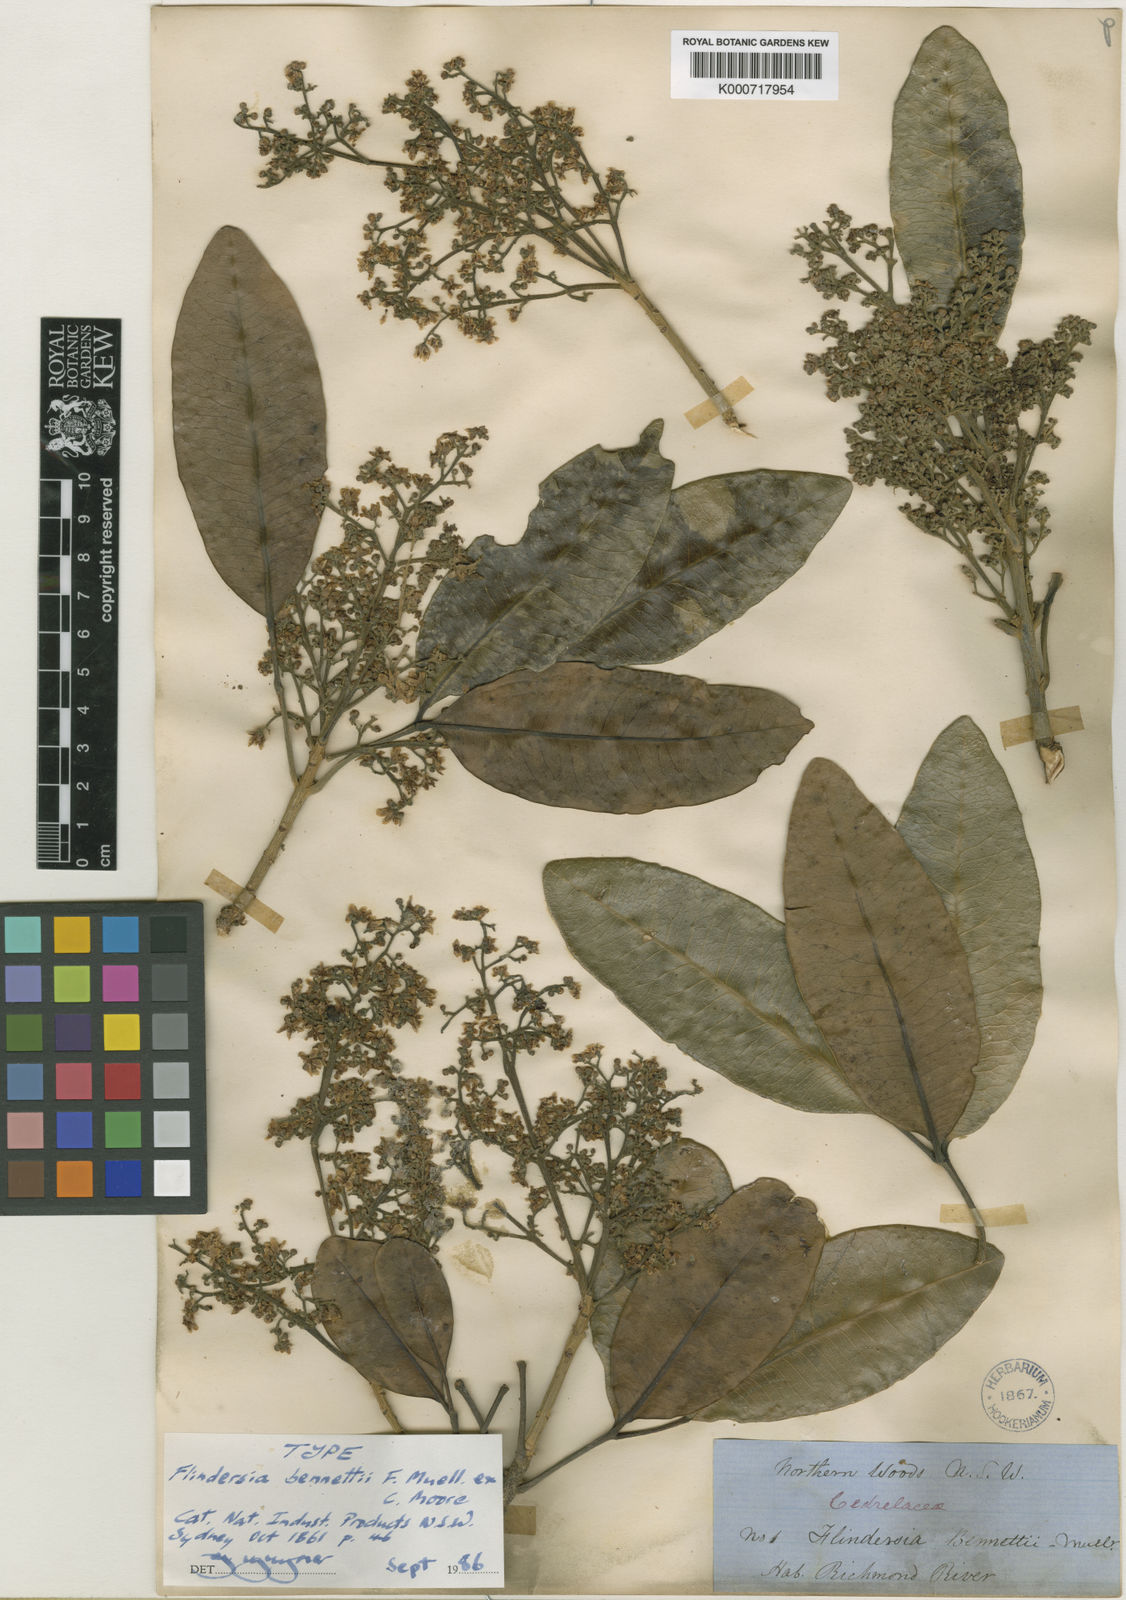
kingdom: Plantae
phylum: Tracheophyta
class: Magnoliopsida
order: Sapindales
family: Rutaceae
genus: Flindersia
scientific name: Flindersia bennettii
